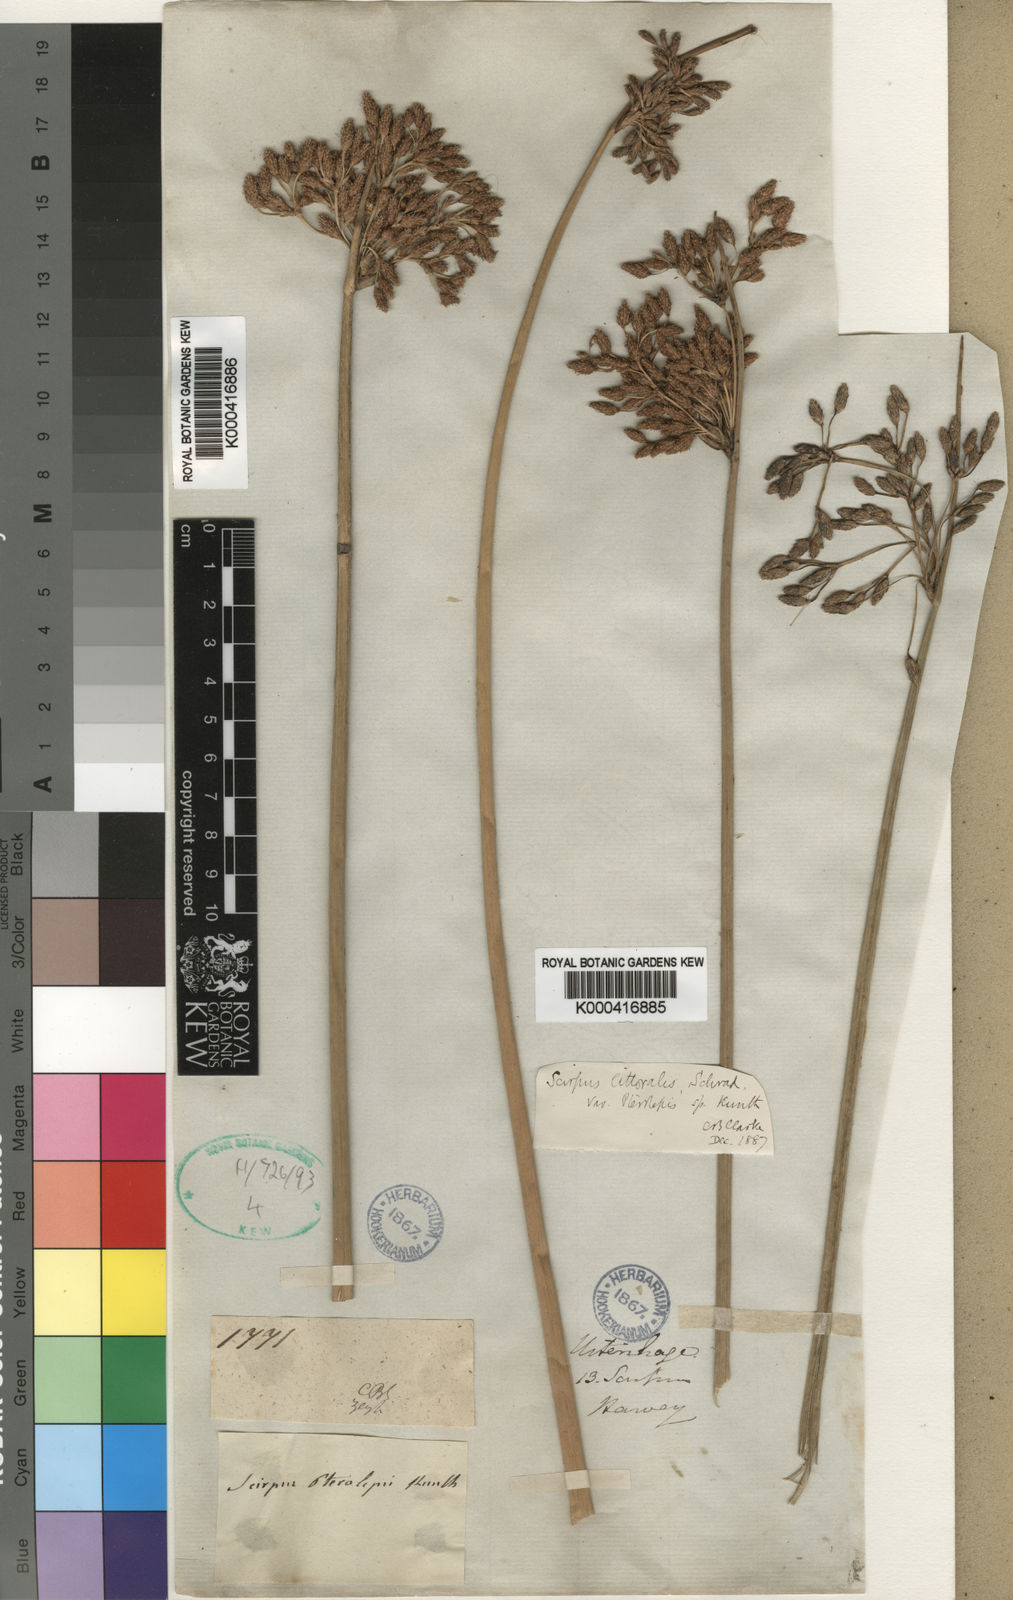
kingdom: Plantae
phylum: Tracheophyta
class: Liliopsida
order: Poales
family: Cyperaceae
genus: Schoenoplectus
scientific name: Schoenoplectus
